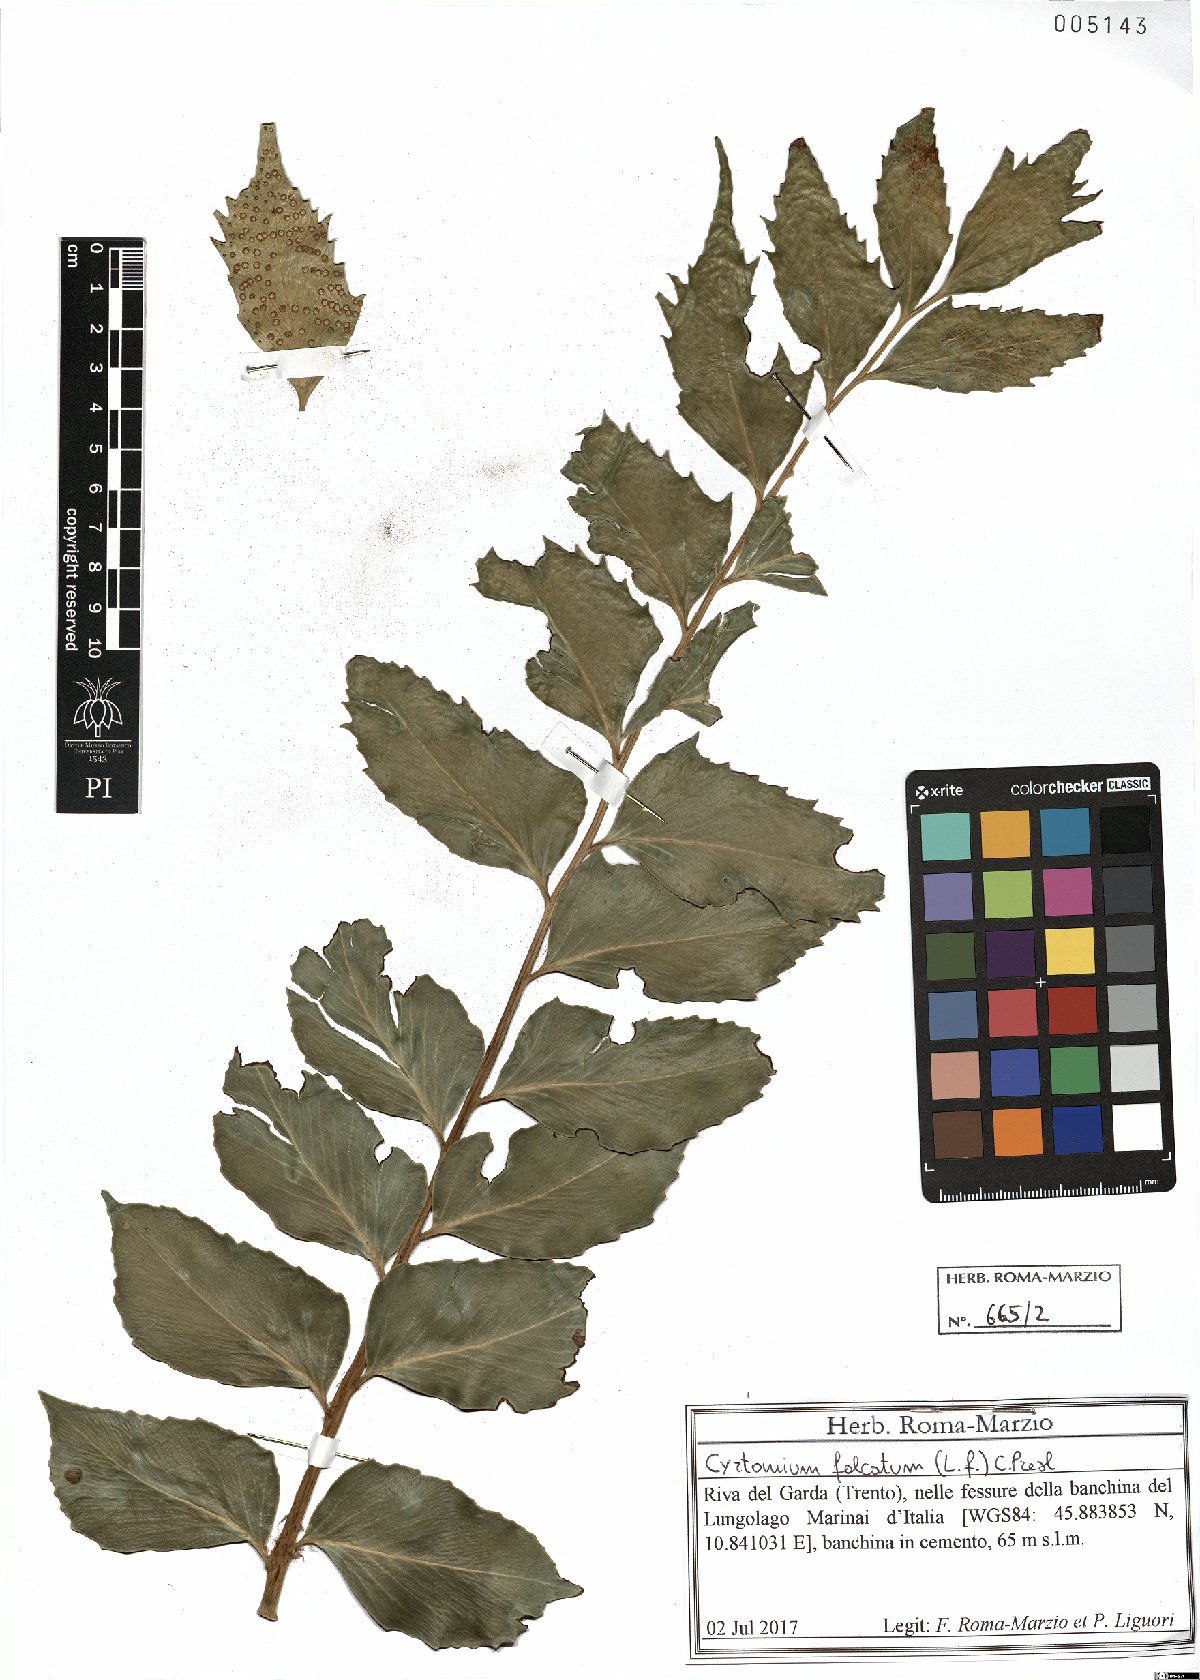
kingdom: Plantae
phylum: Tracheophyta
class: Polypodiopsida
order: Polypodiales
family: Dryopteridaceae
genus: Cyrtomium
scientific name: Cyrtomium falcatum
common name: House holly-fern
